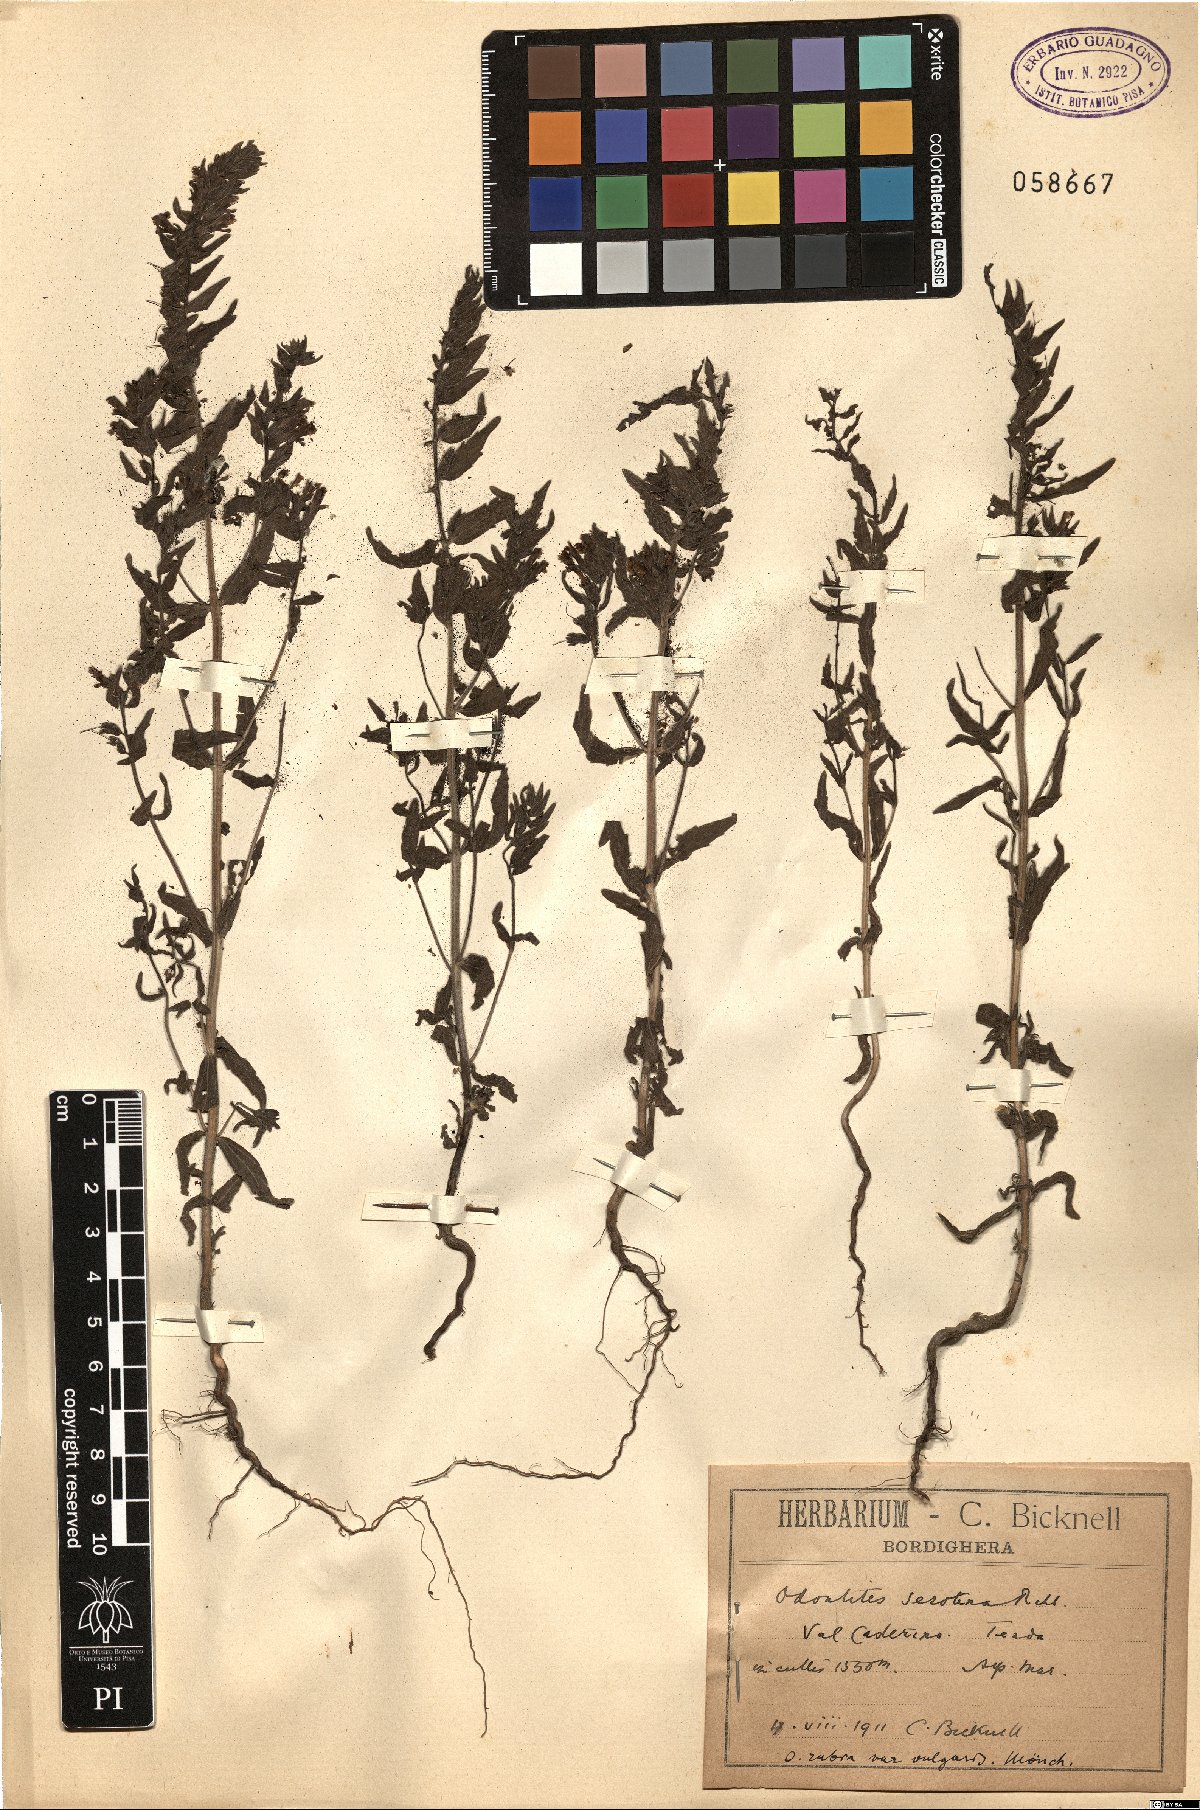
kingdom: Plantae
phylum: Tracheophyta
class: Magnoliopsida
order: Lamiales
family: Orobanchaceae
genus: Odontites
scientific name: Odontites vulgaris
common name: Broomrape
